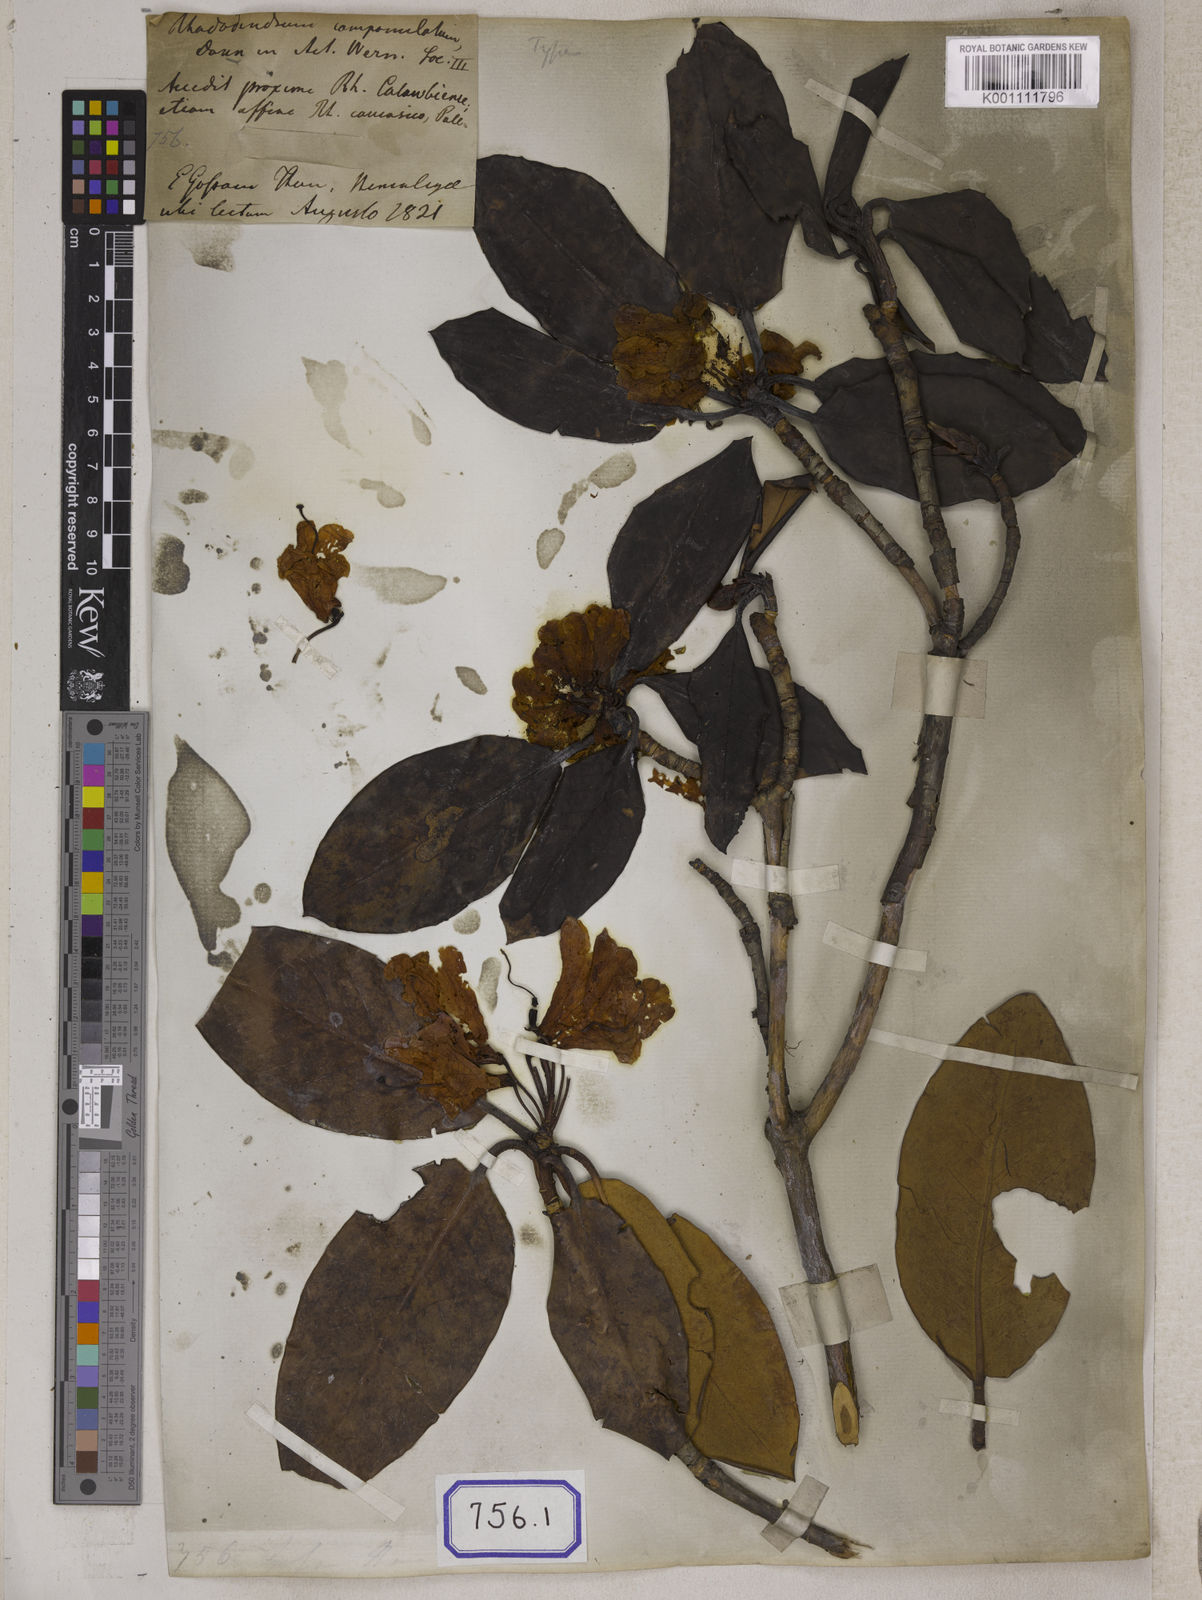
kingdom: Plantae
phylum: Tracheophyta
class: Magnoliopsida
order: Ericales
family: Ericaceae
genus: Rhododendron
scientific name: Rhododendron campanulatum
